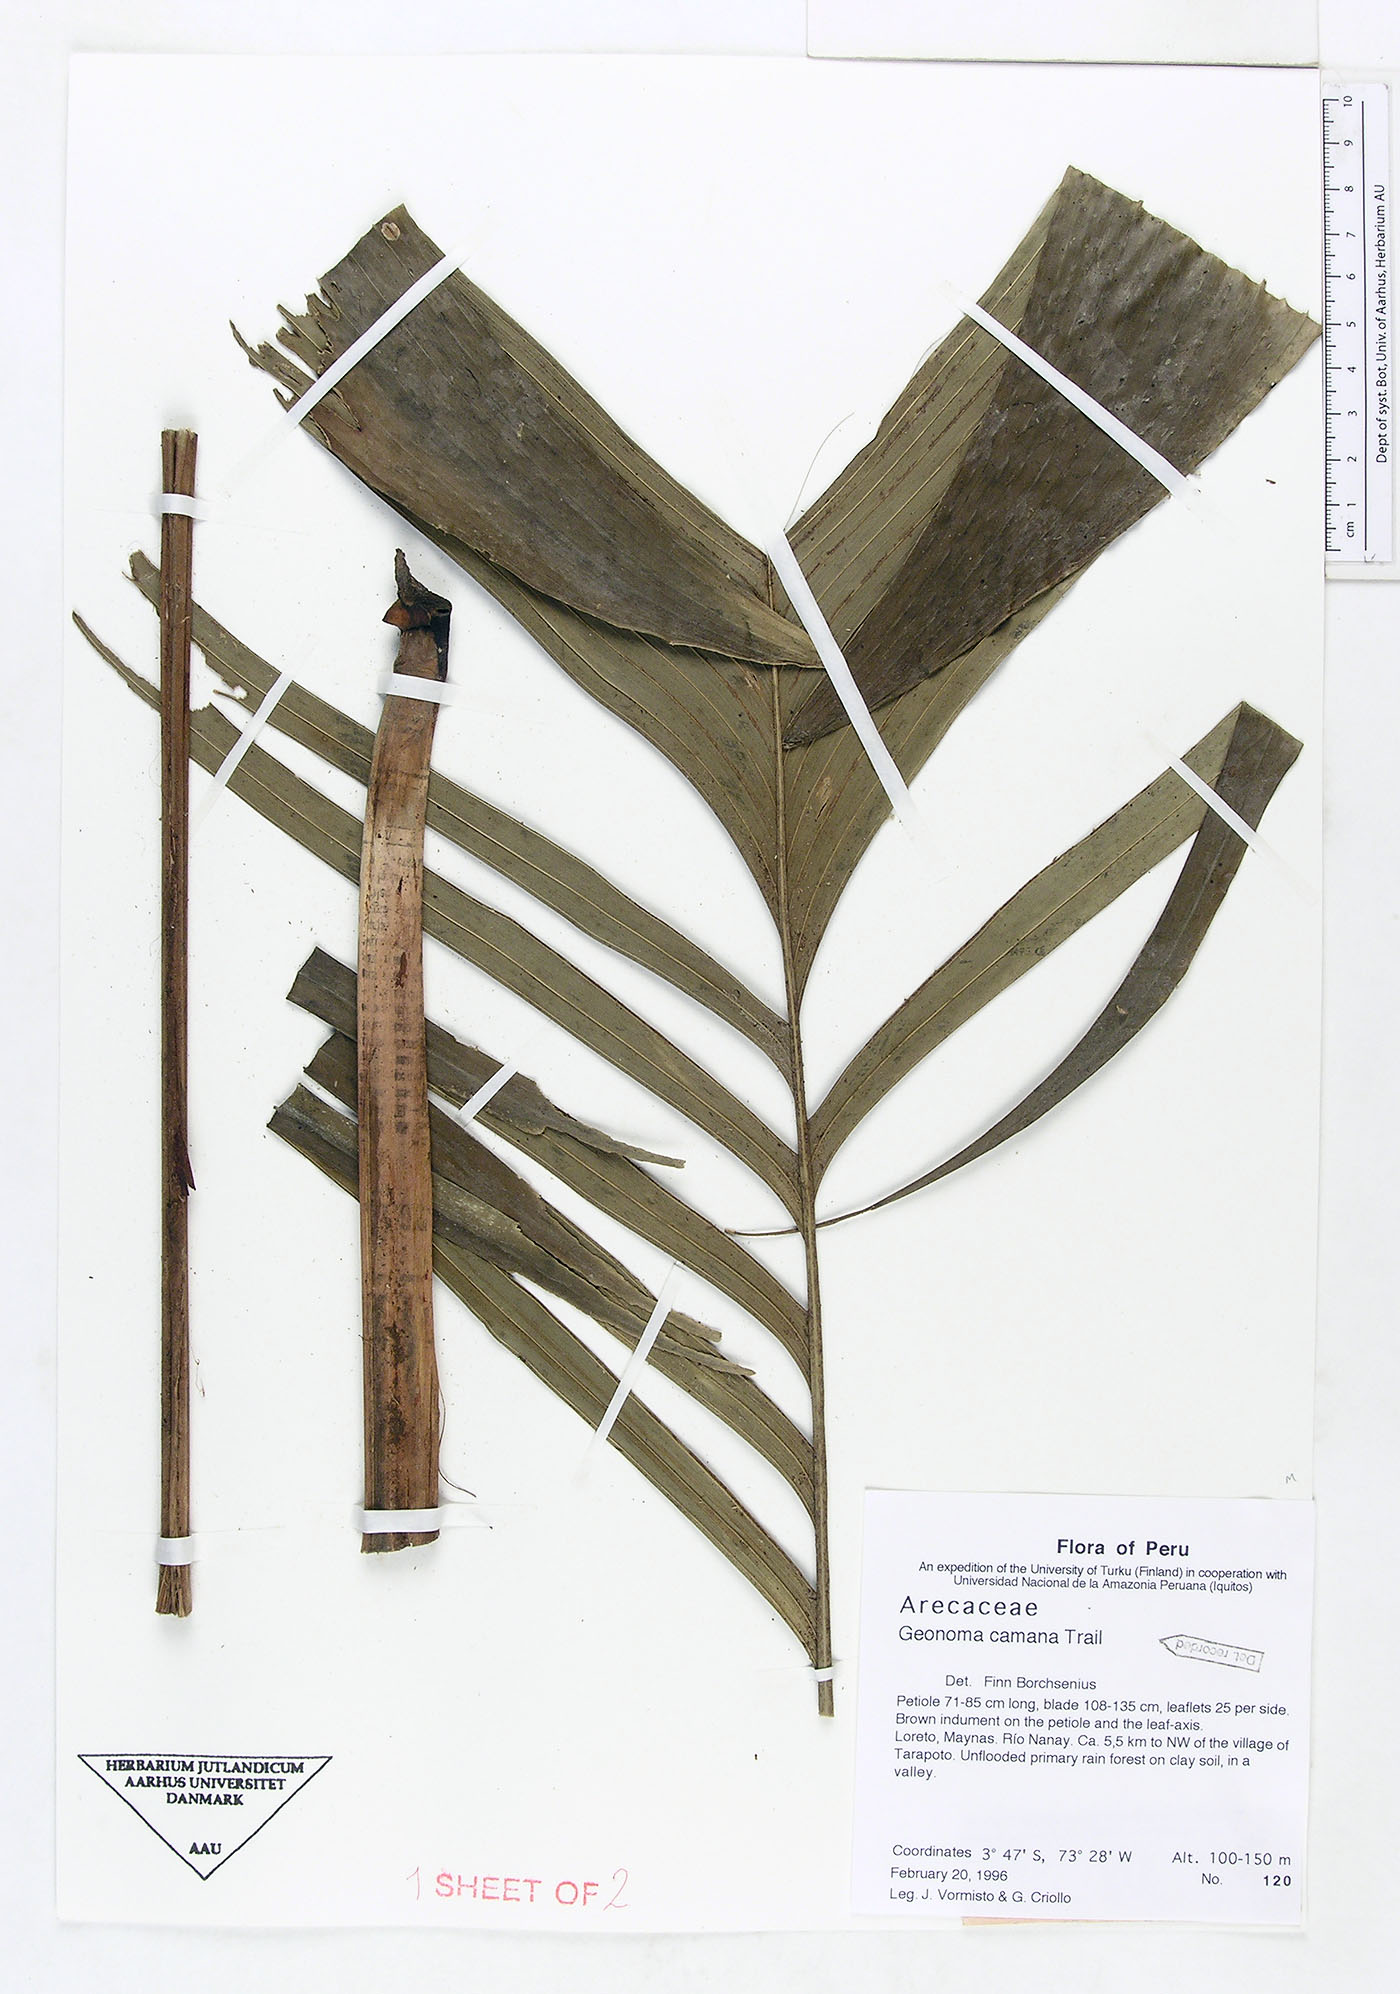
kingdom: Plantae
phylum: Tracheophyta
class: Liliopsida
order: Arecales
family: Arecaceae
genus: Geonoma
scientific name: Geonoma camana
